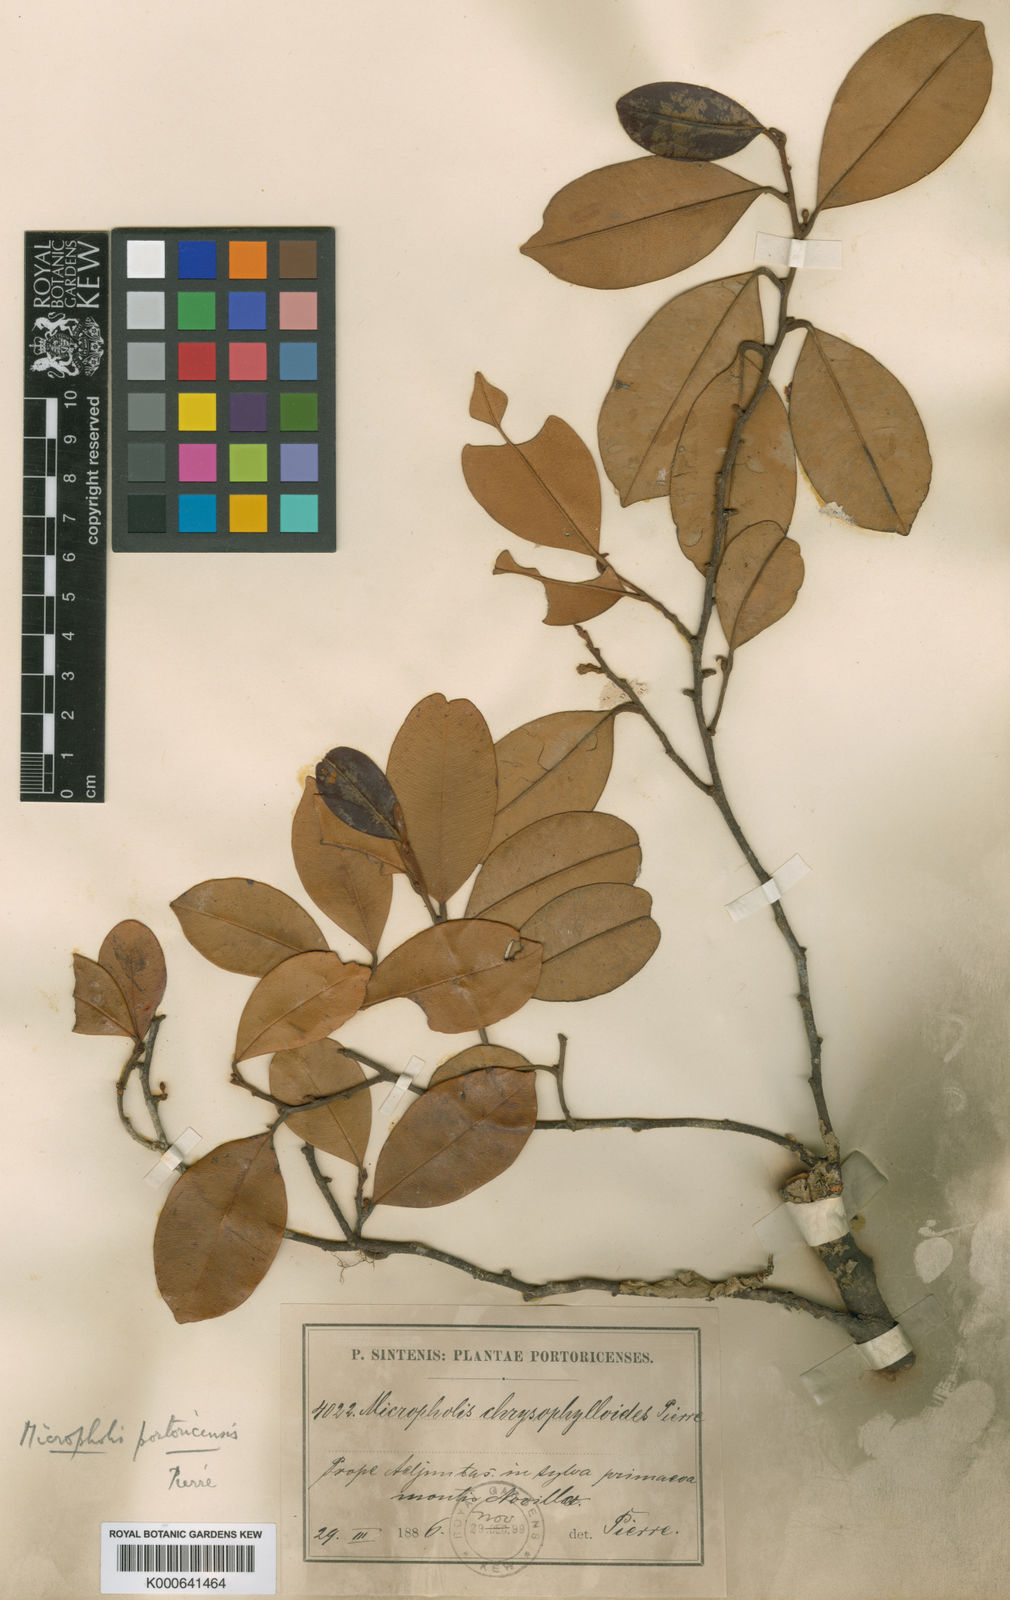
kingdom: Plantae
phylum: Tracheophyta
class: Magnoliopsida
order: Ericales
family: Sapotaceae
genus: Micropholis
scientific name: Micropholis guyanensis
